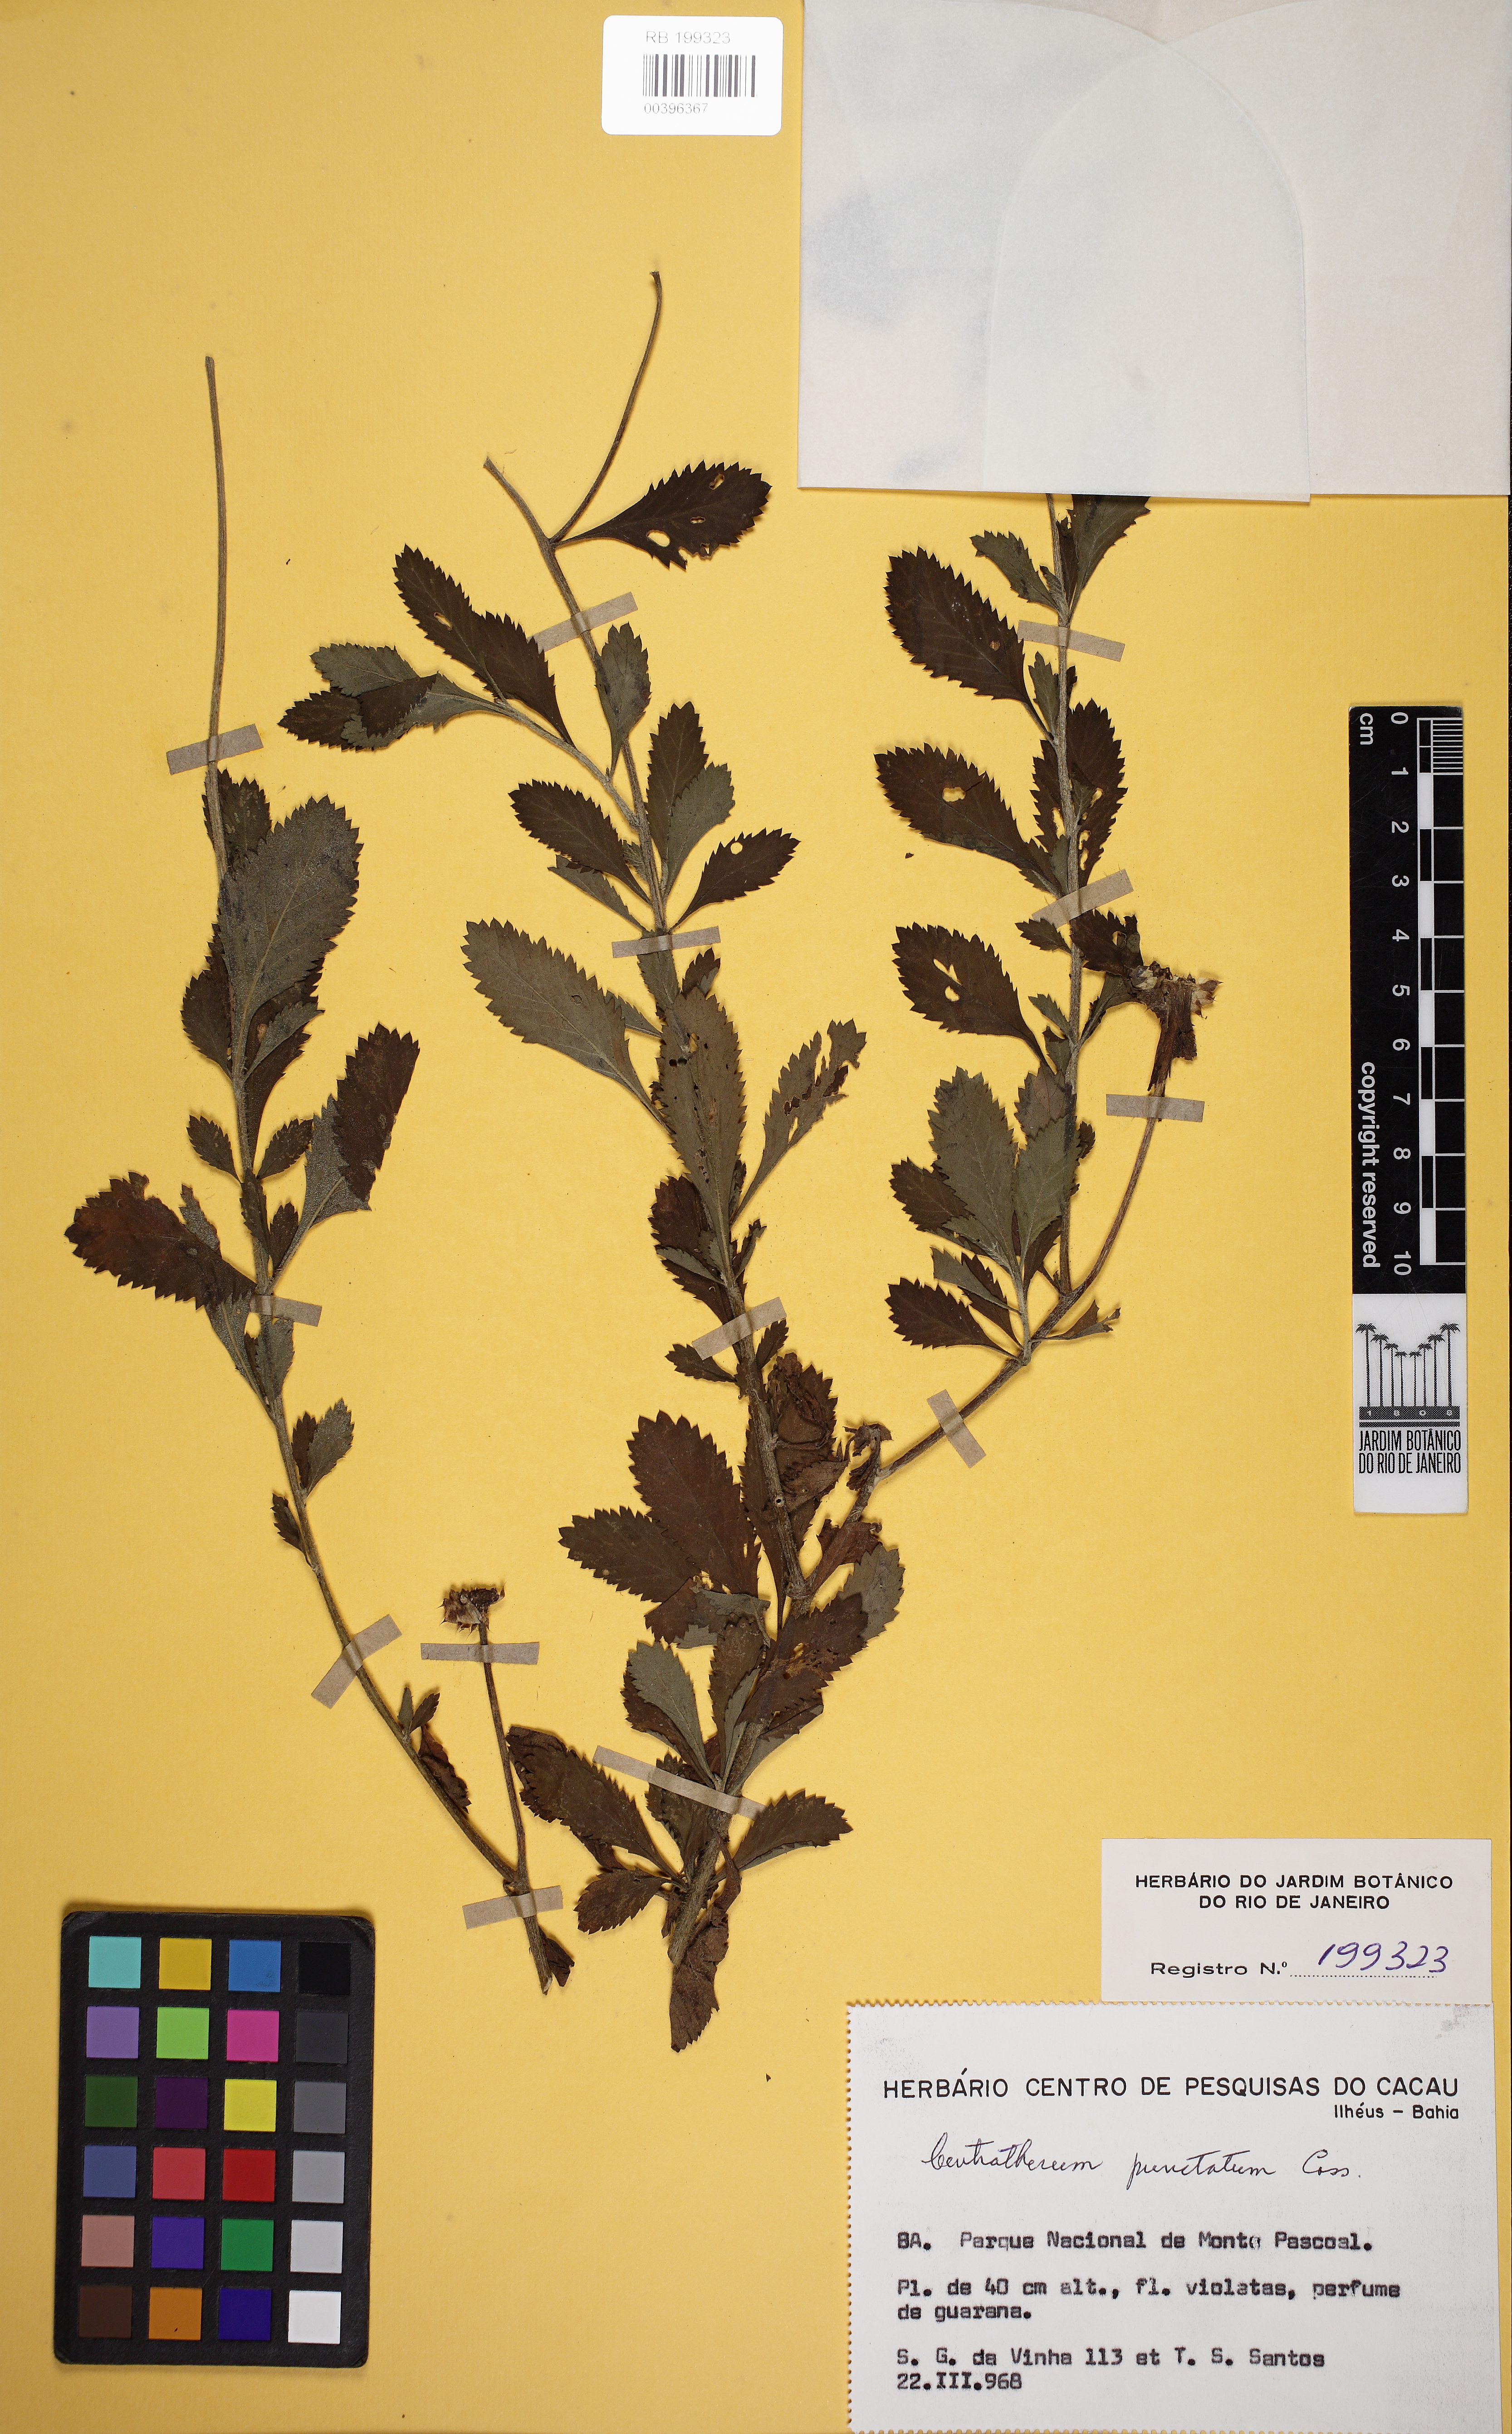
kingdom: Plantae
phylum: Tracheophyta
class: Magnoliopsida
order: Asterales
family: Asteraceae
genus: Centratherum
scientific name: Centratherum punctatum
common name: Larkdaisy
